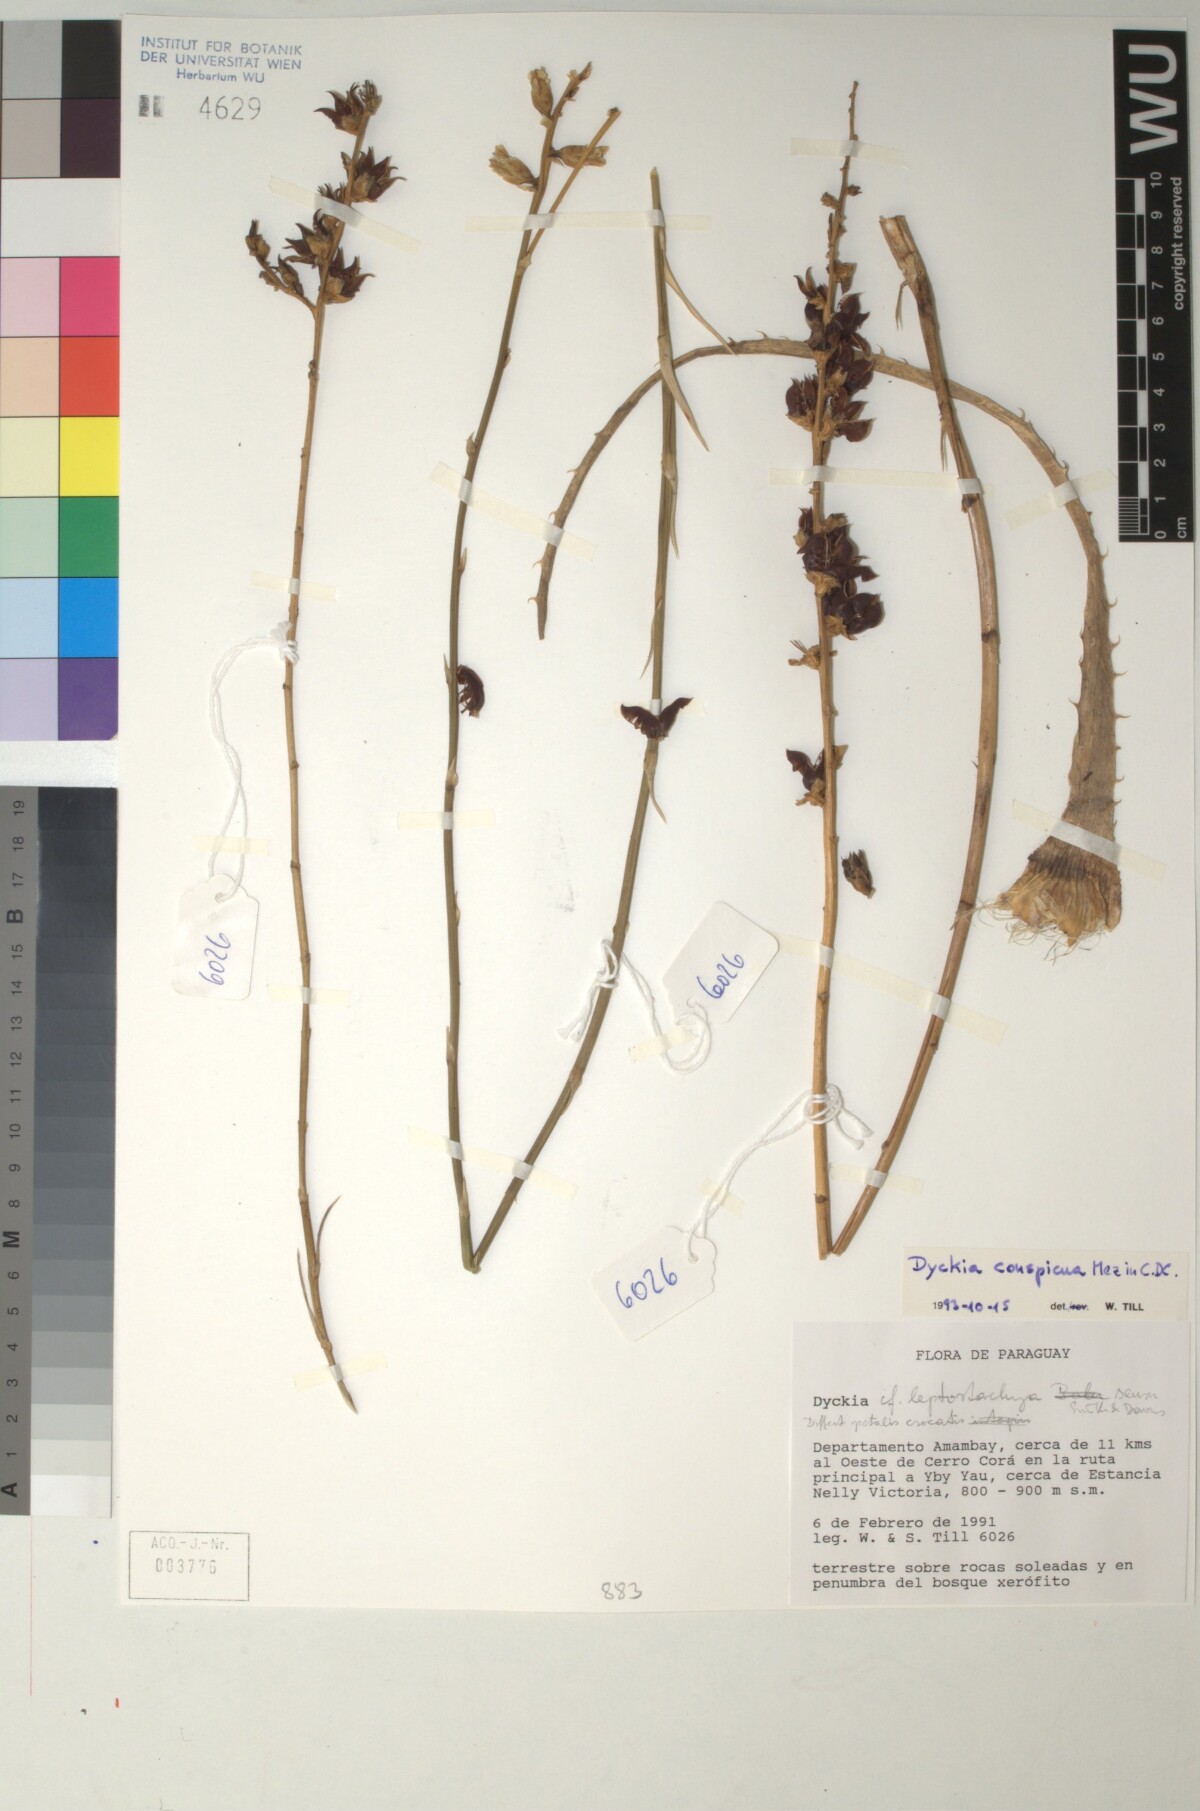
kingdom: Plantae
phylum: Tracheophyta
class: Liliopsida
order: Poales
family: Bromeliaceae
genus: Dyckia
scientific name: Dyckia leptostachya
